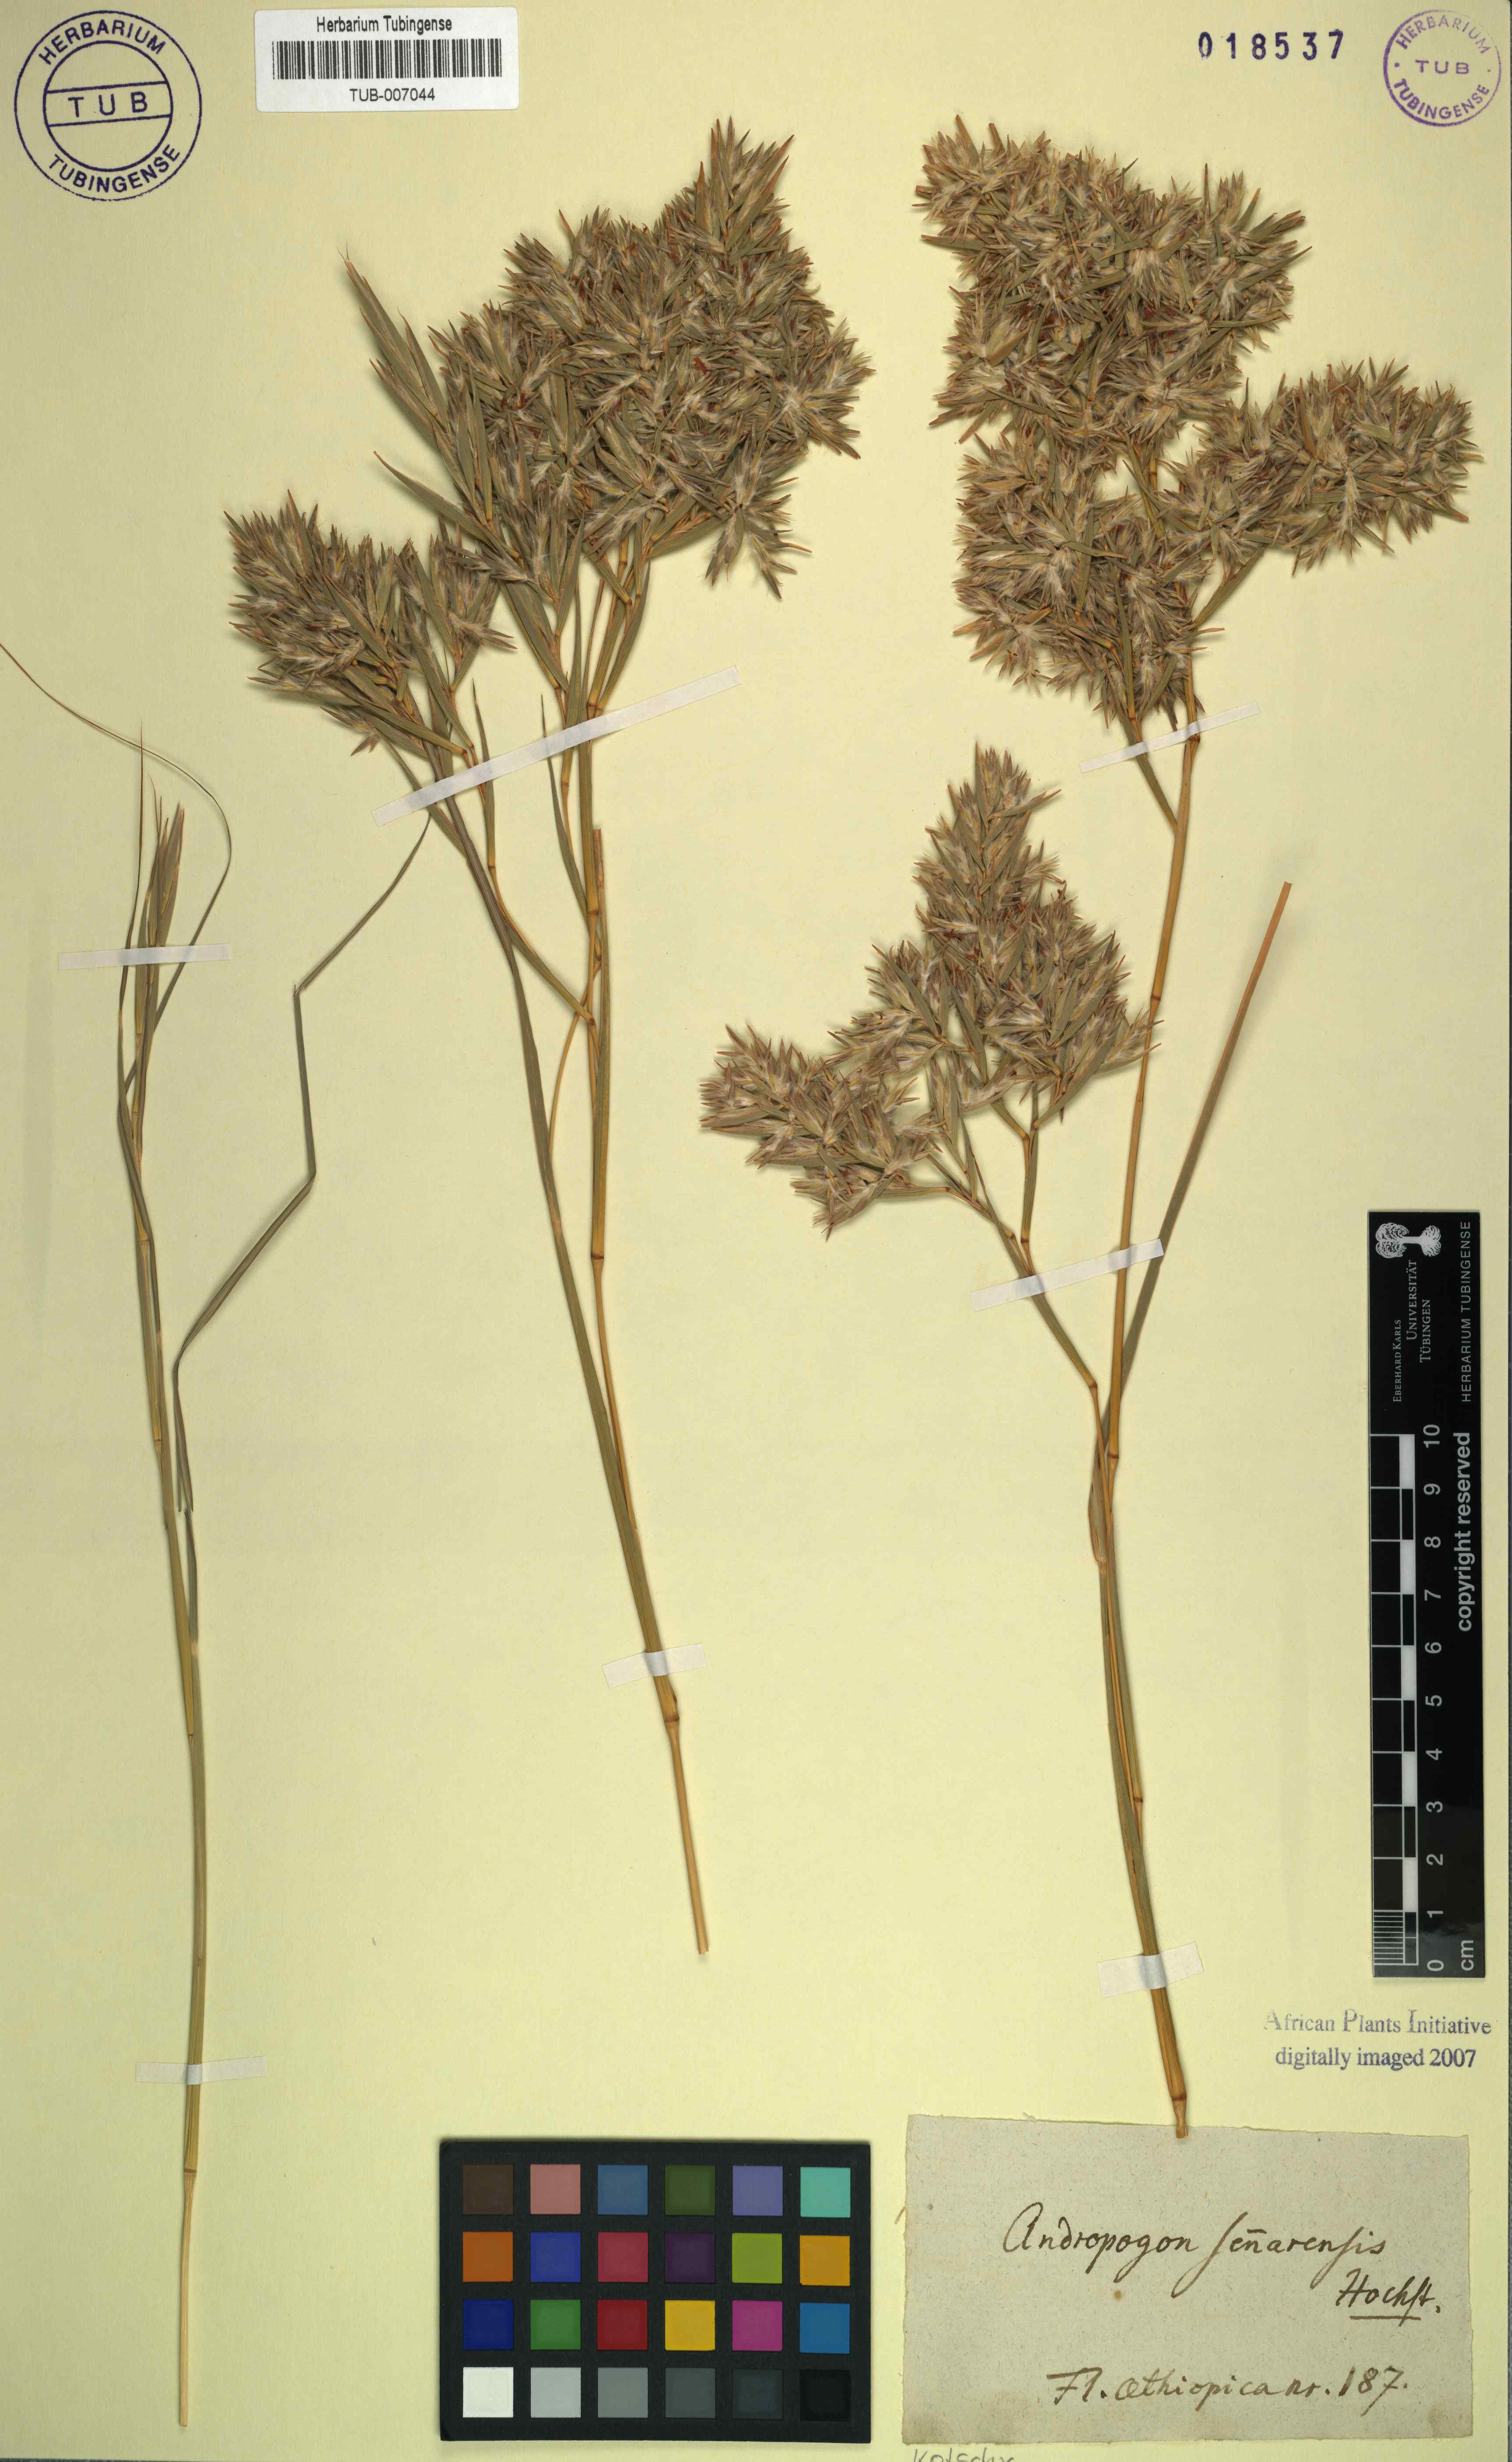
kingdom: Plantae
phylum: Tracheophyta
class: Liliopsida
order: Poales
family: Poaceae
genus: Cymbopogon
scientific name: Cymbopogon iwarancusa
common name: Iwarancusa grass
